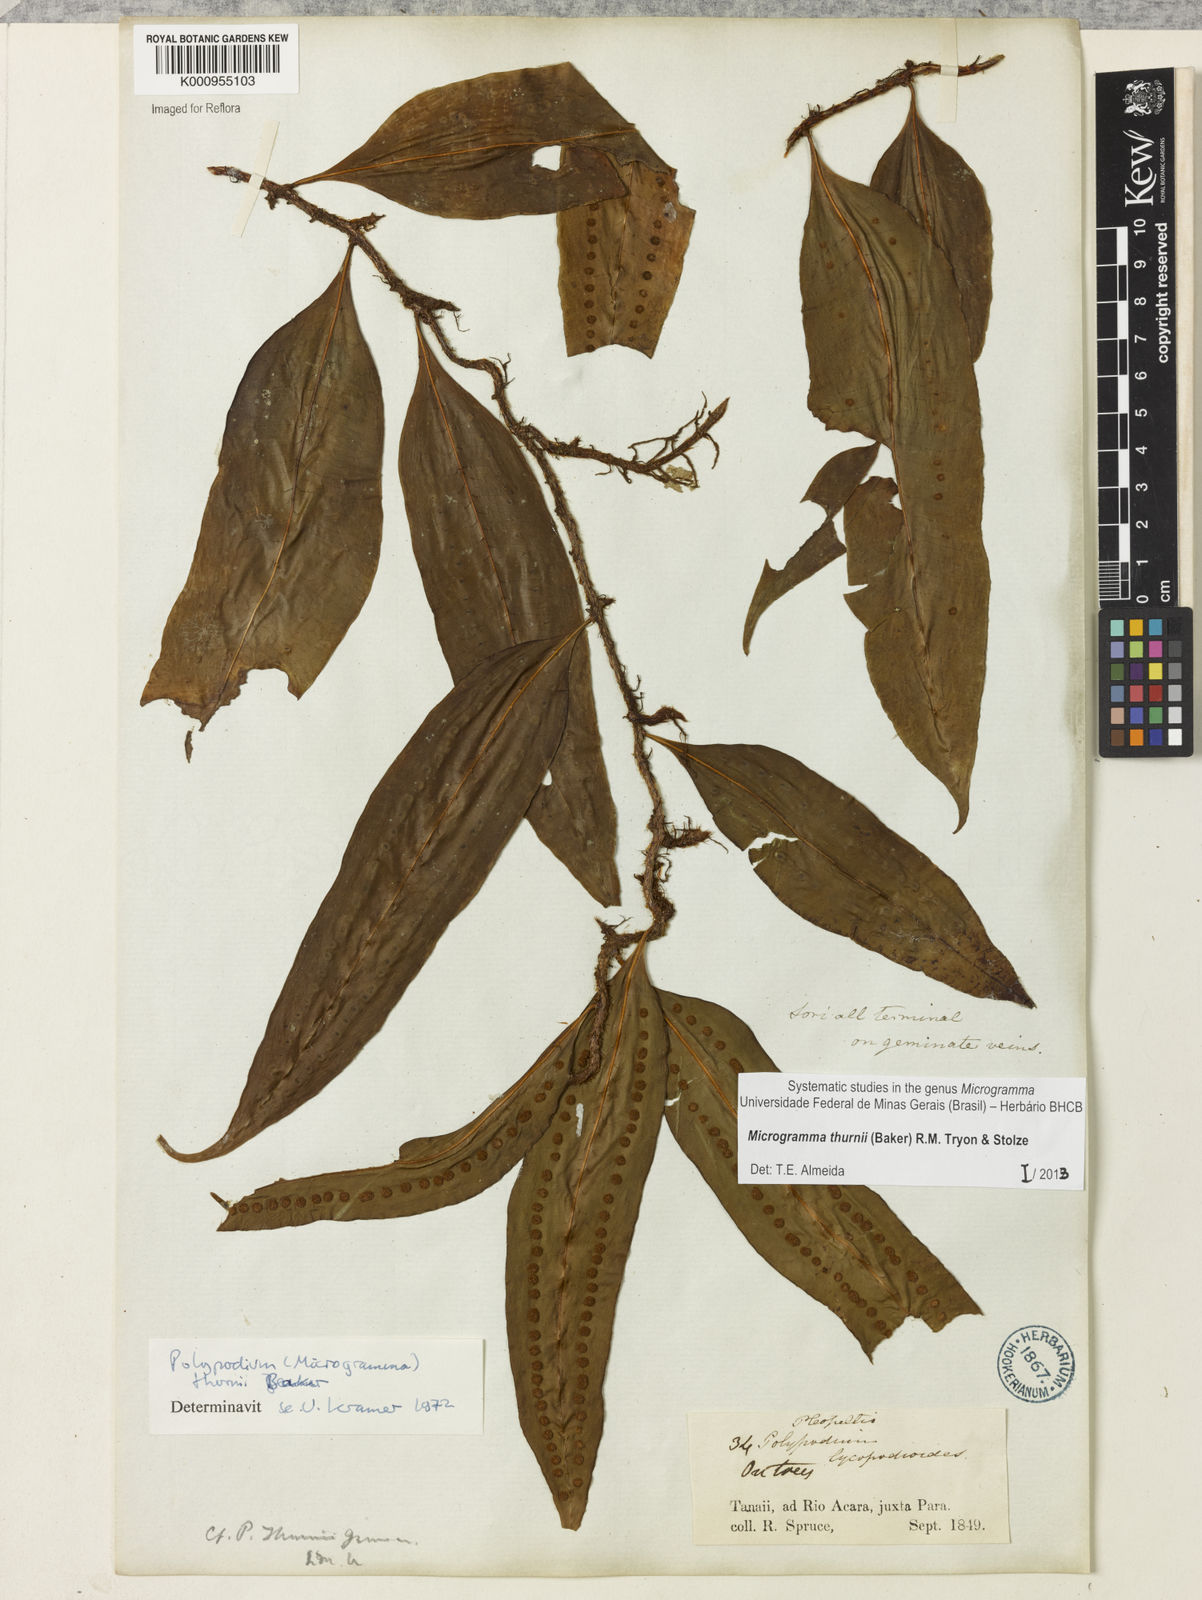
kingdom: Plantae
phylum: Tracheophyta
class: Polypodiopsida
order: Polypodiales
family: Polypodiaceae
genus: Microgramma
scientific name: Microgramma thurnii
